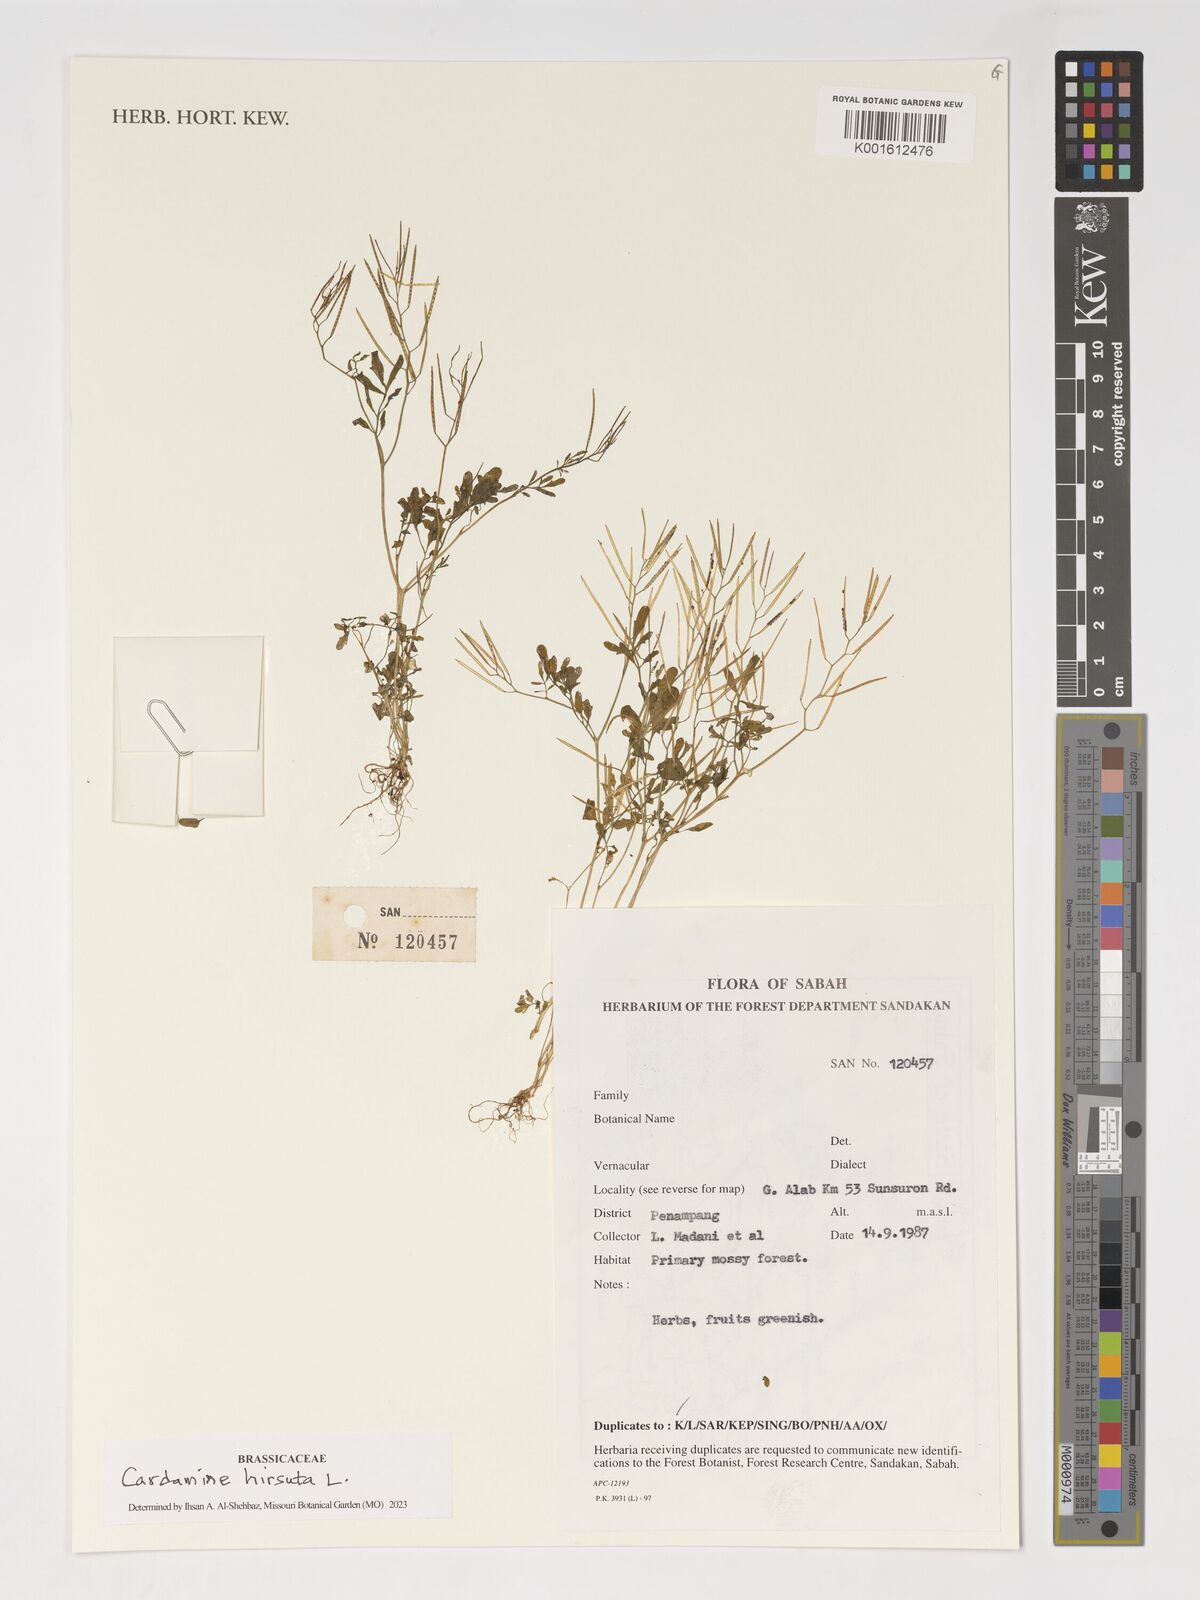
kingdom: Plantae
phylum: Tracheophyta
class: Magnoliopsida
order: Brassicales
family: Brassicaceae
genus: Cardamine
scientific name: Cardamine hirsuta
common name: Hairy bittercress
